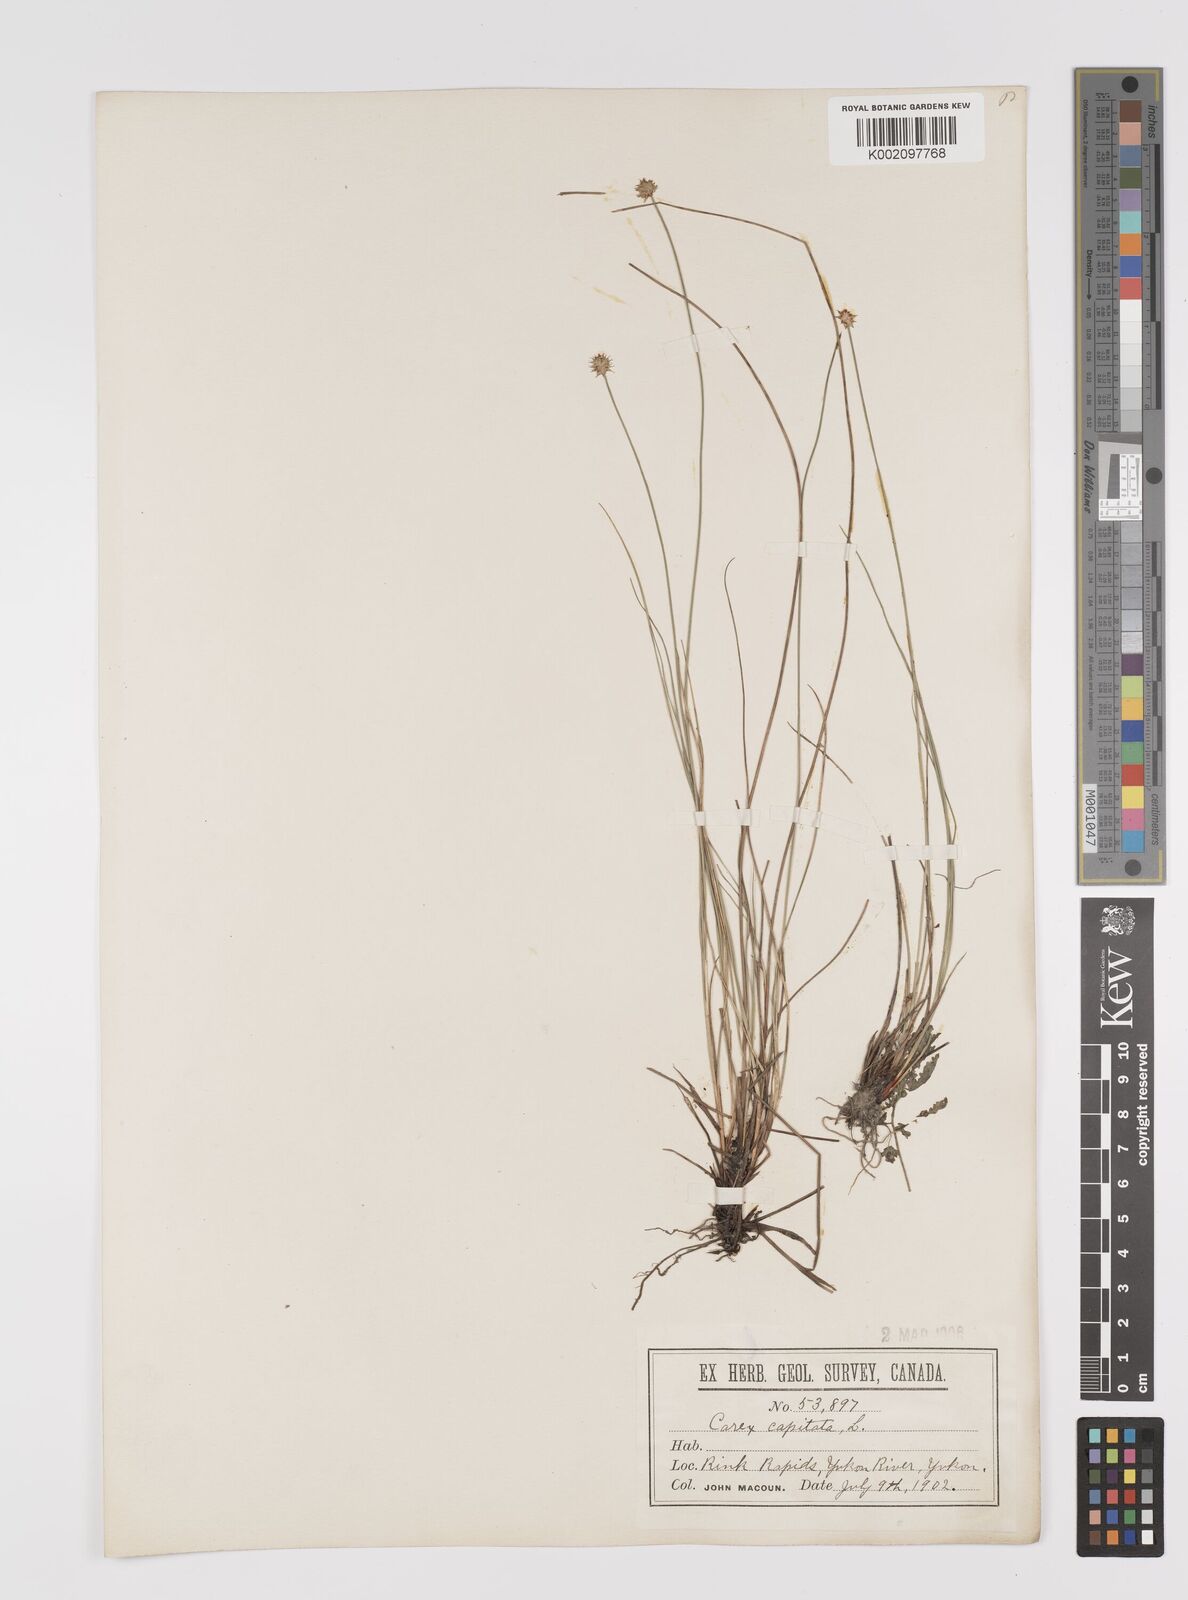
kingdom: Plantae
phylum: Tracheophyta
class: Liliopsida
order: Poales
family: Cyperaceae
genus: Carex
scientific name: Carex capitata
